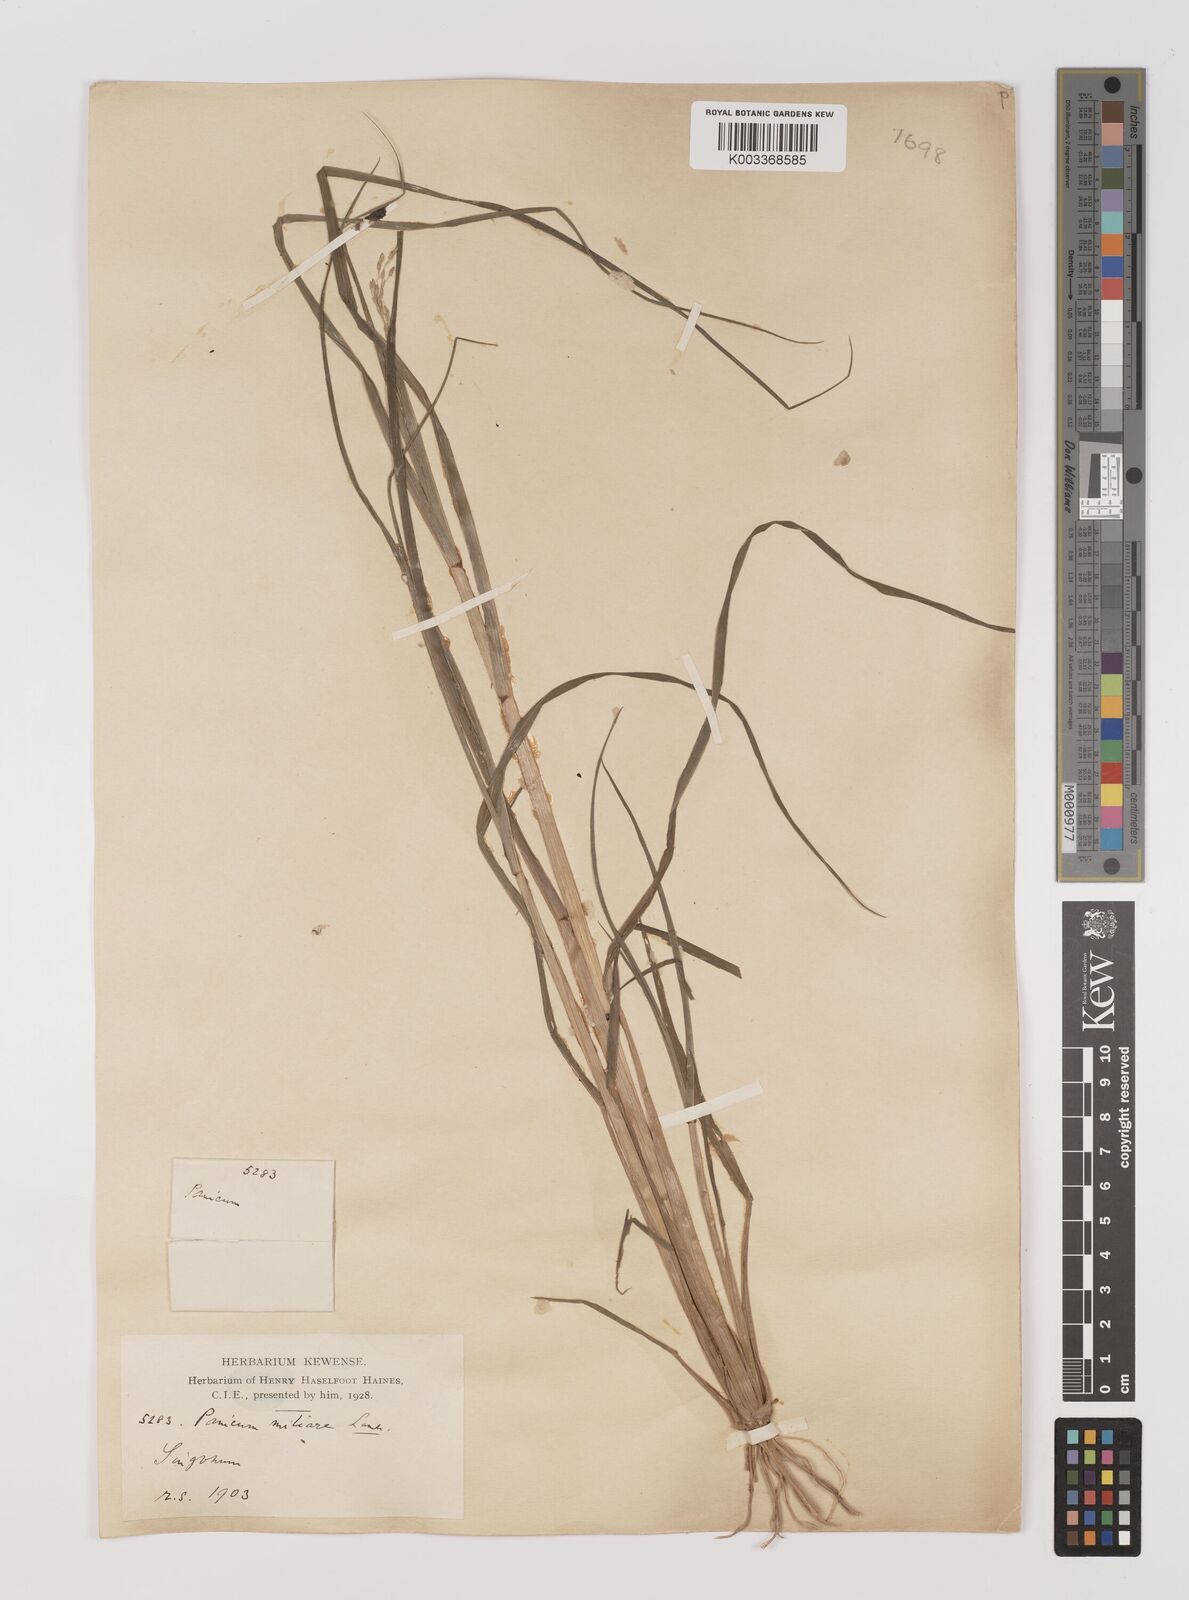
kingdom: Plantae
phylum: Tracheophyta
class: Liliopsida
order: Poales
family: Poaceae
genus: Panicum
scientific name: Panicum sumatrense
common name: Little millet
